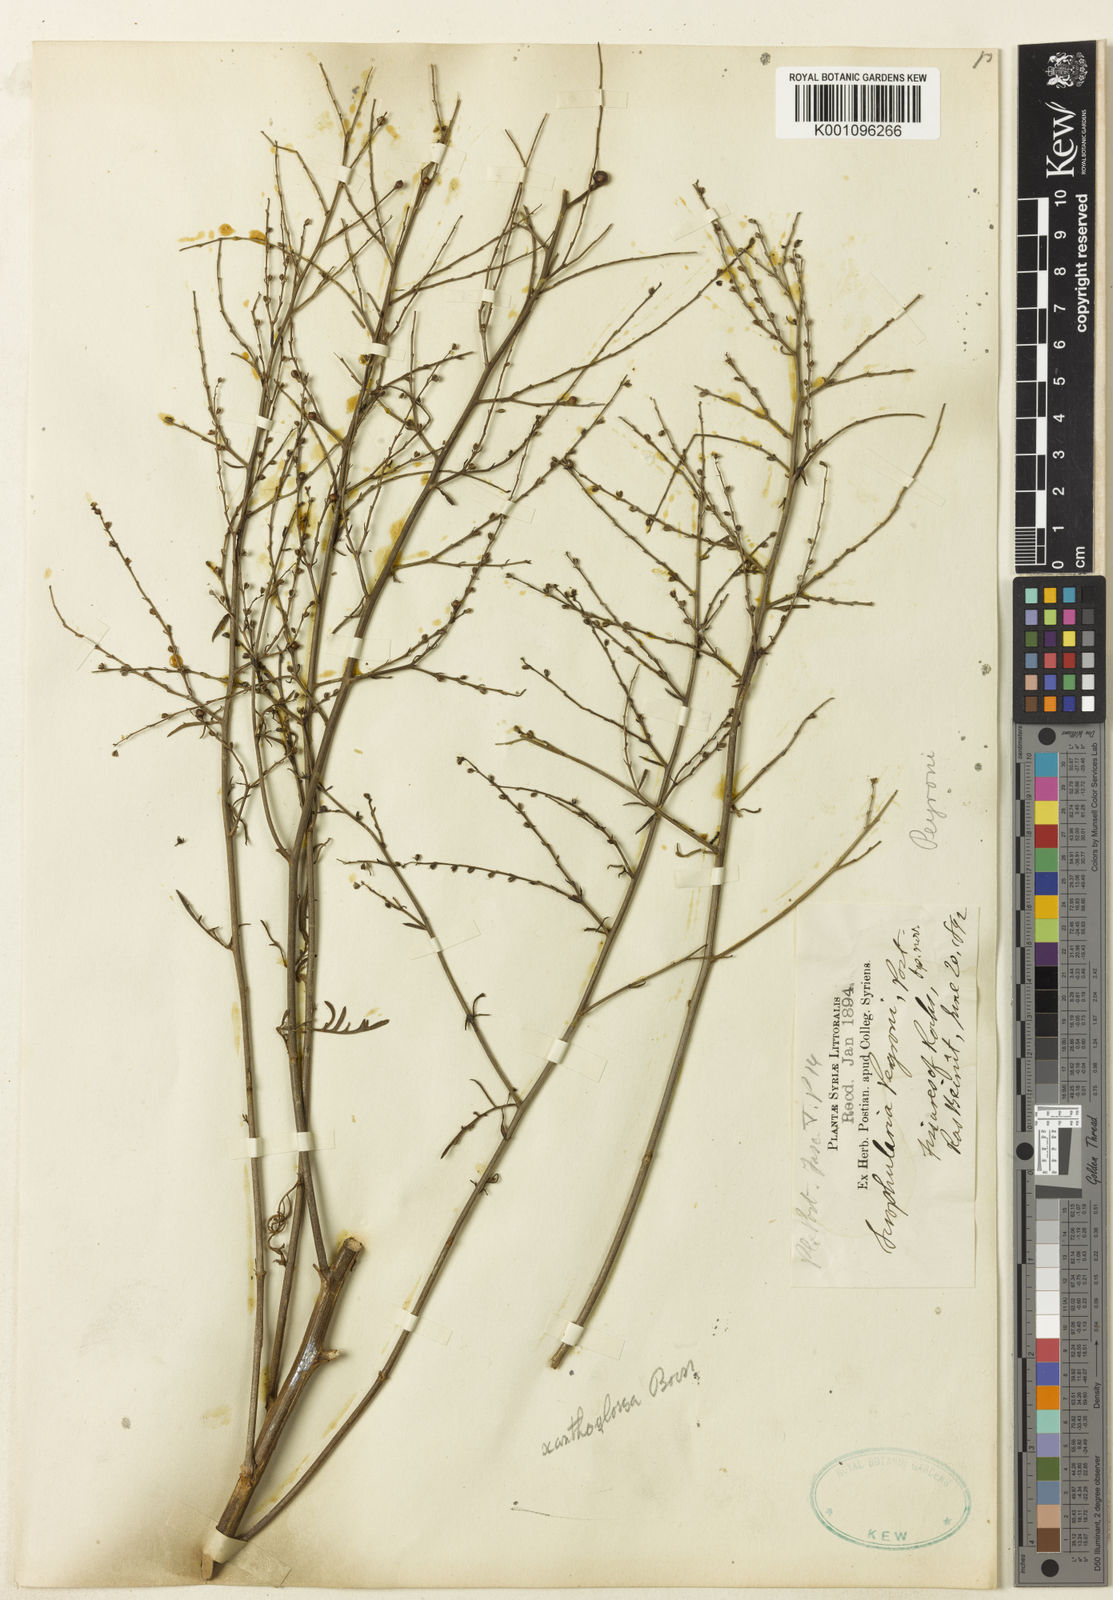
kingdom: Plantae
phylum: Tracheophyta
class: Magnoliopsida
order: Lamiales
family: Scrophulariaceae
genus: Scrophularia
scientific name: Scrophularia peyronii
